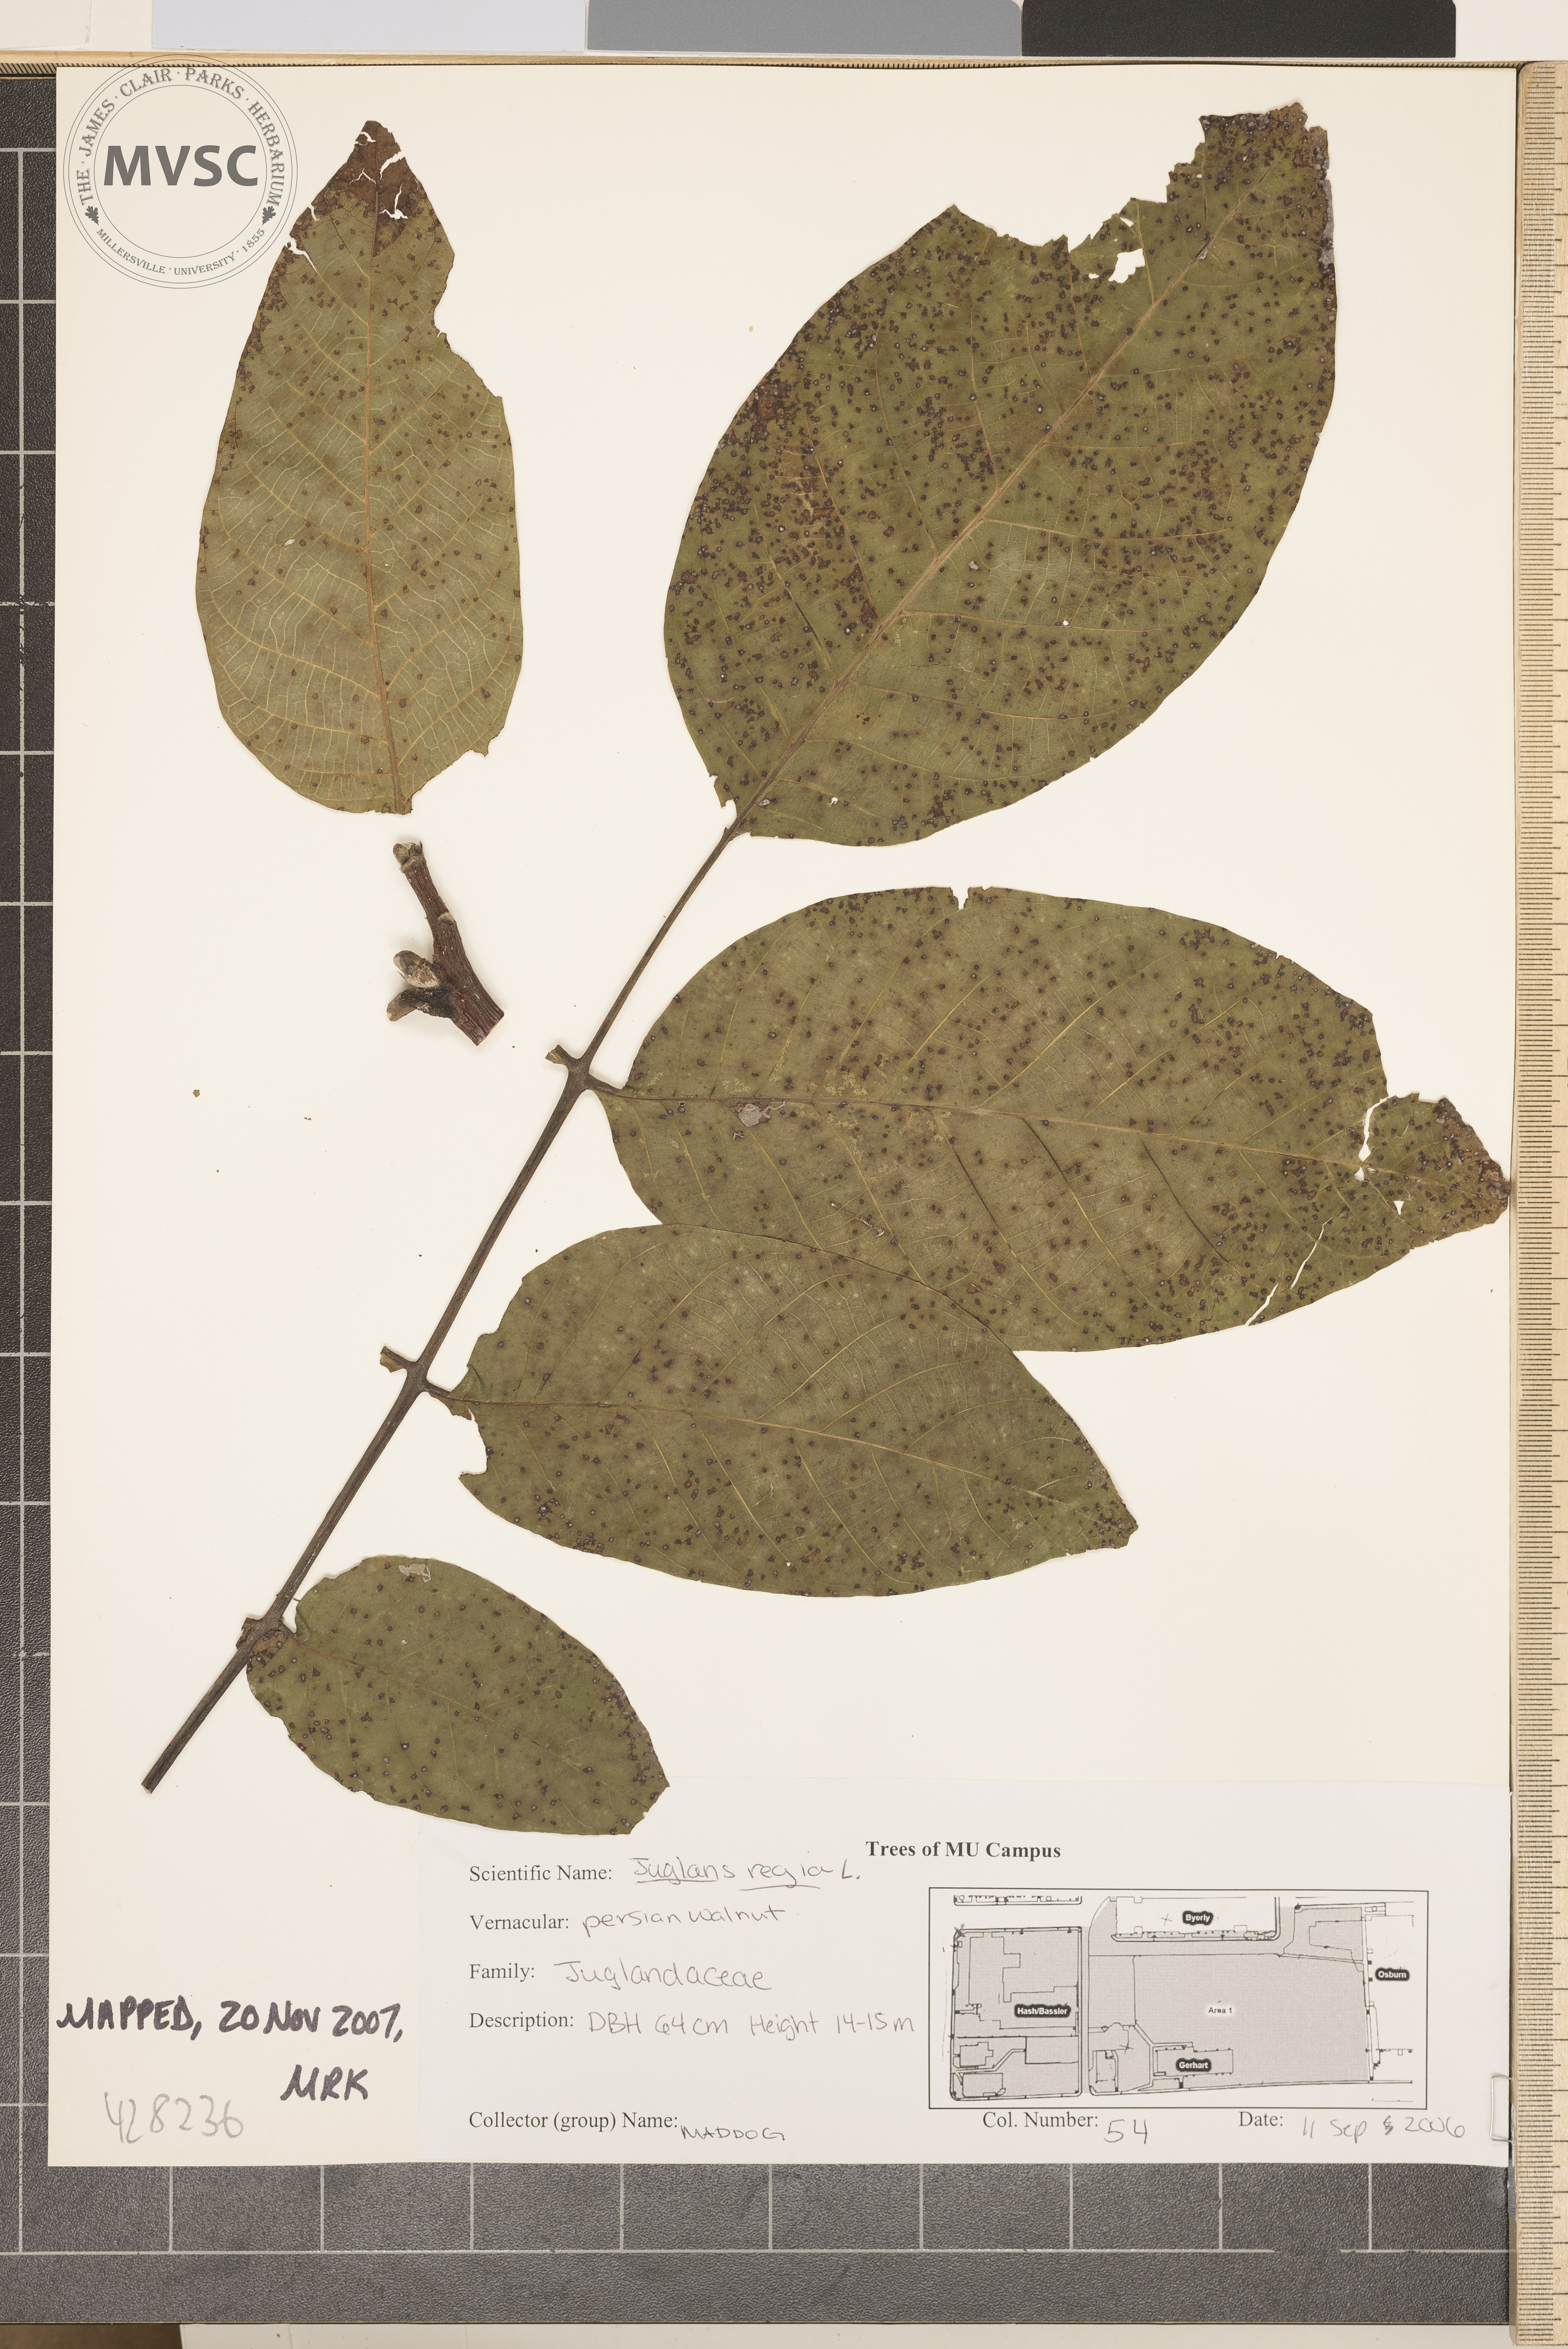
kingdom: Plantae
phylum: Tracheophyta
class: Magnoliopsida
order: Fagales
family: Juglandaceae
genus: Juglans
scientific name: Juglans regia
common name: Persian Walnut
